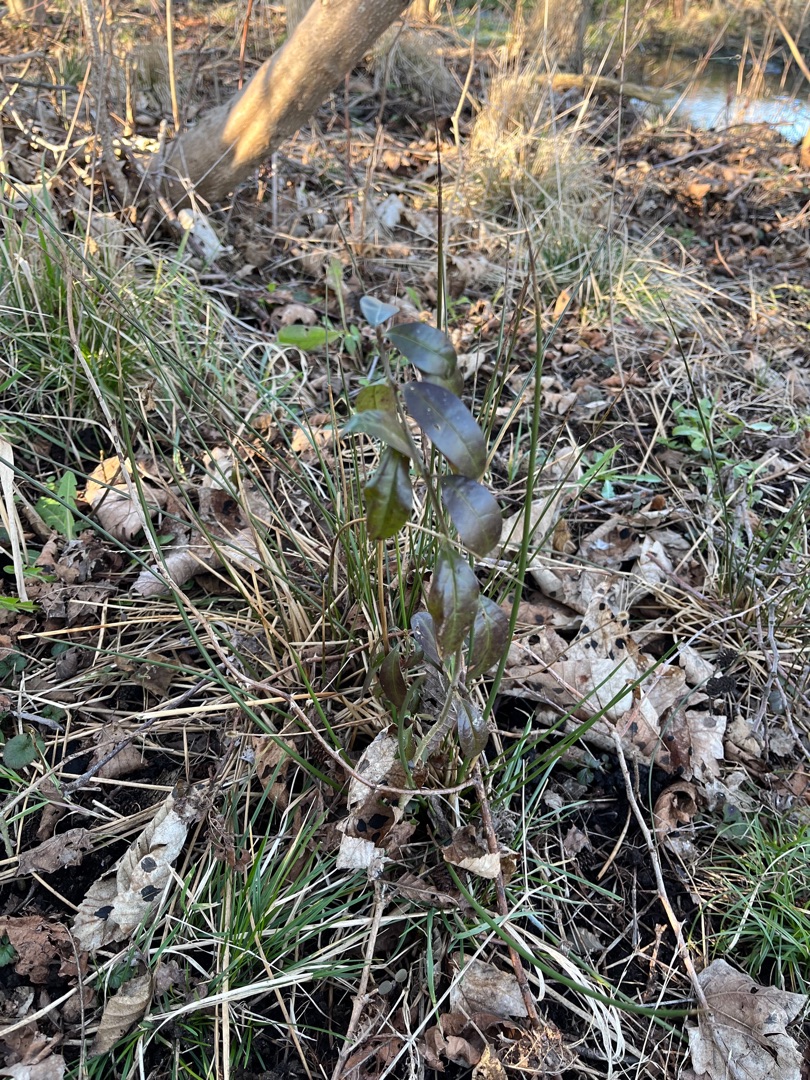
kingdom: Plantae
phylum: Tracheophyta
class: Magnoliopsida
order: Lamiales
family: Oleaceae
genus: Ligustrum
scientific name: Ligustrum vulgare
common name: Liguster
